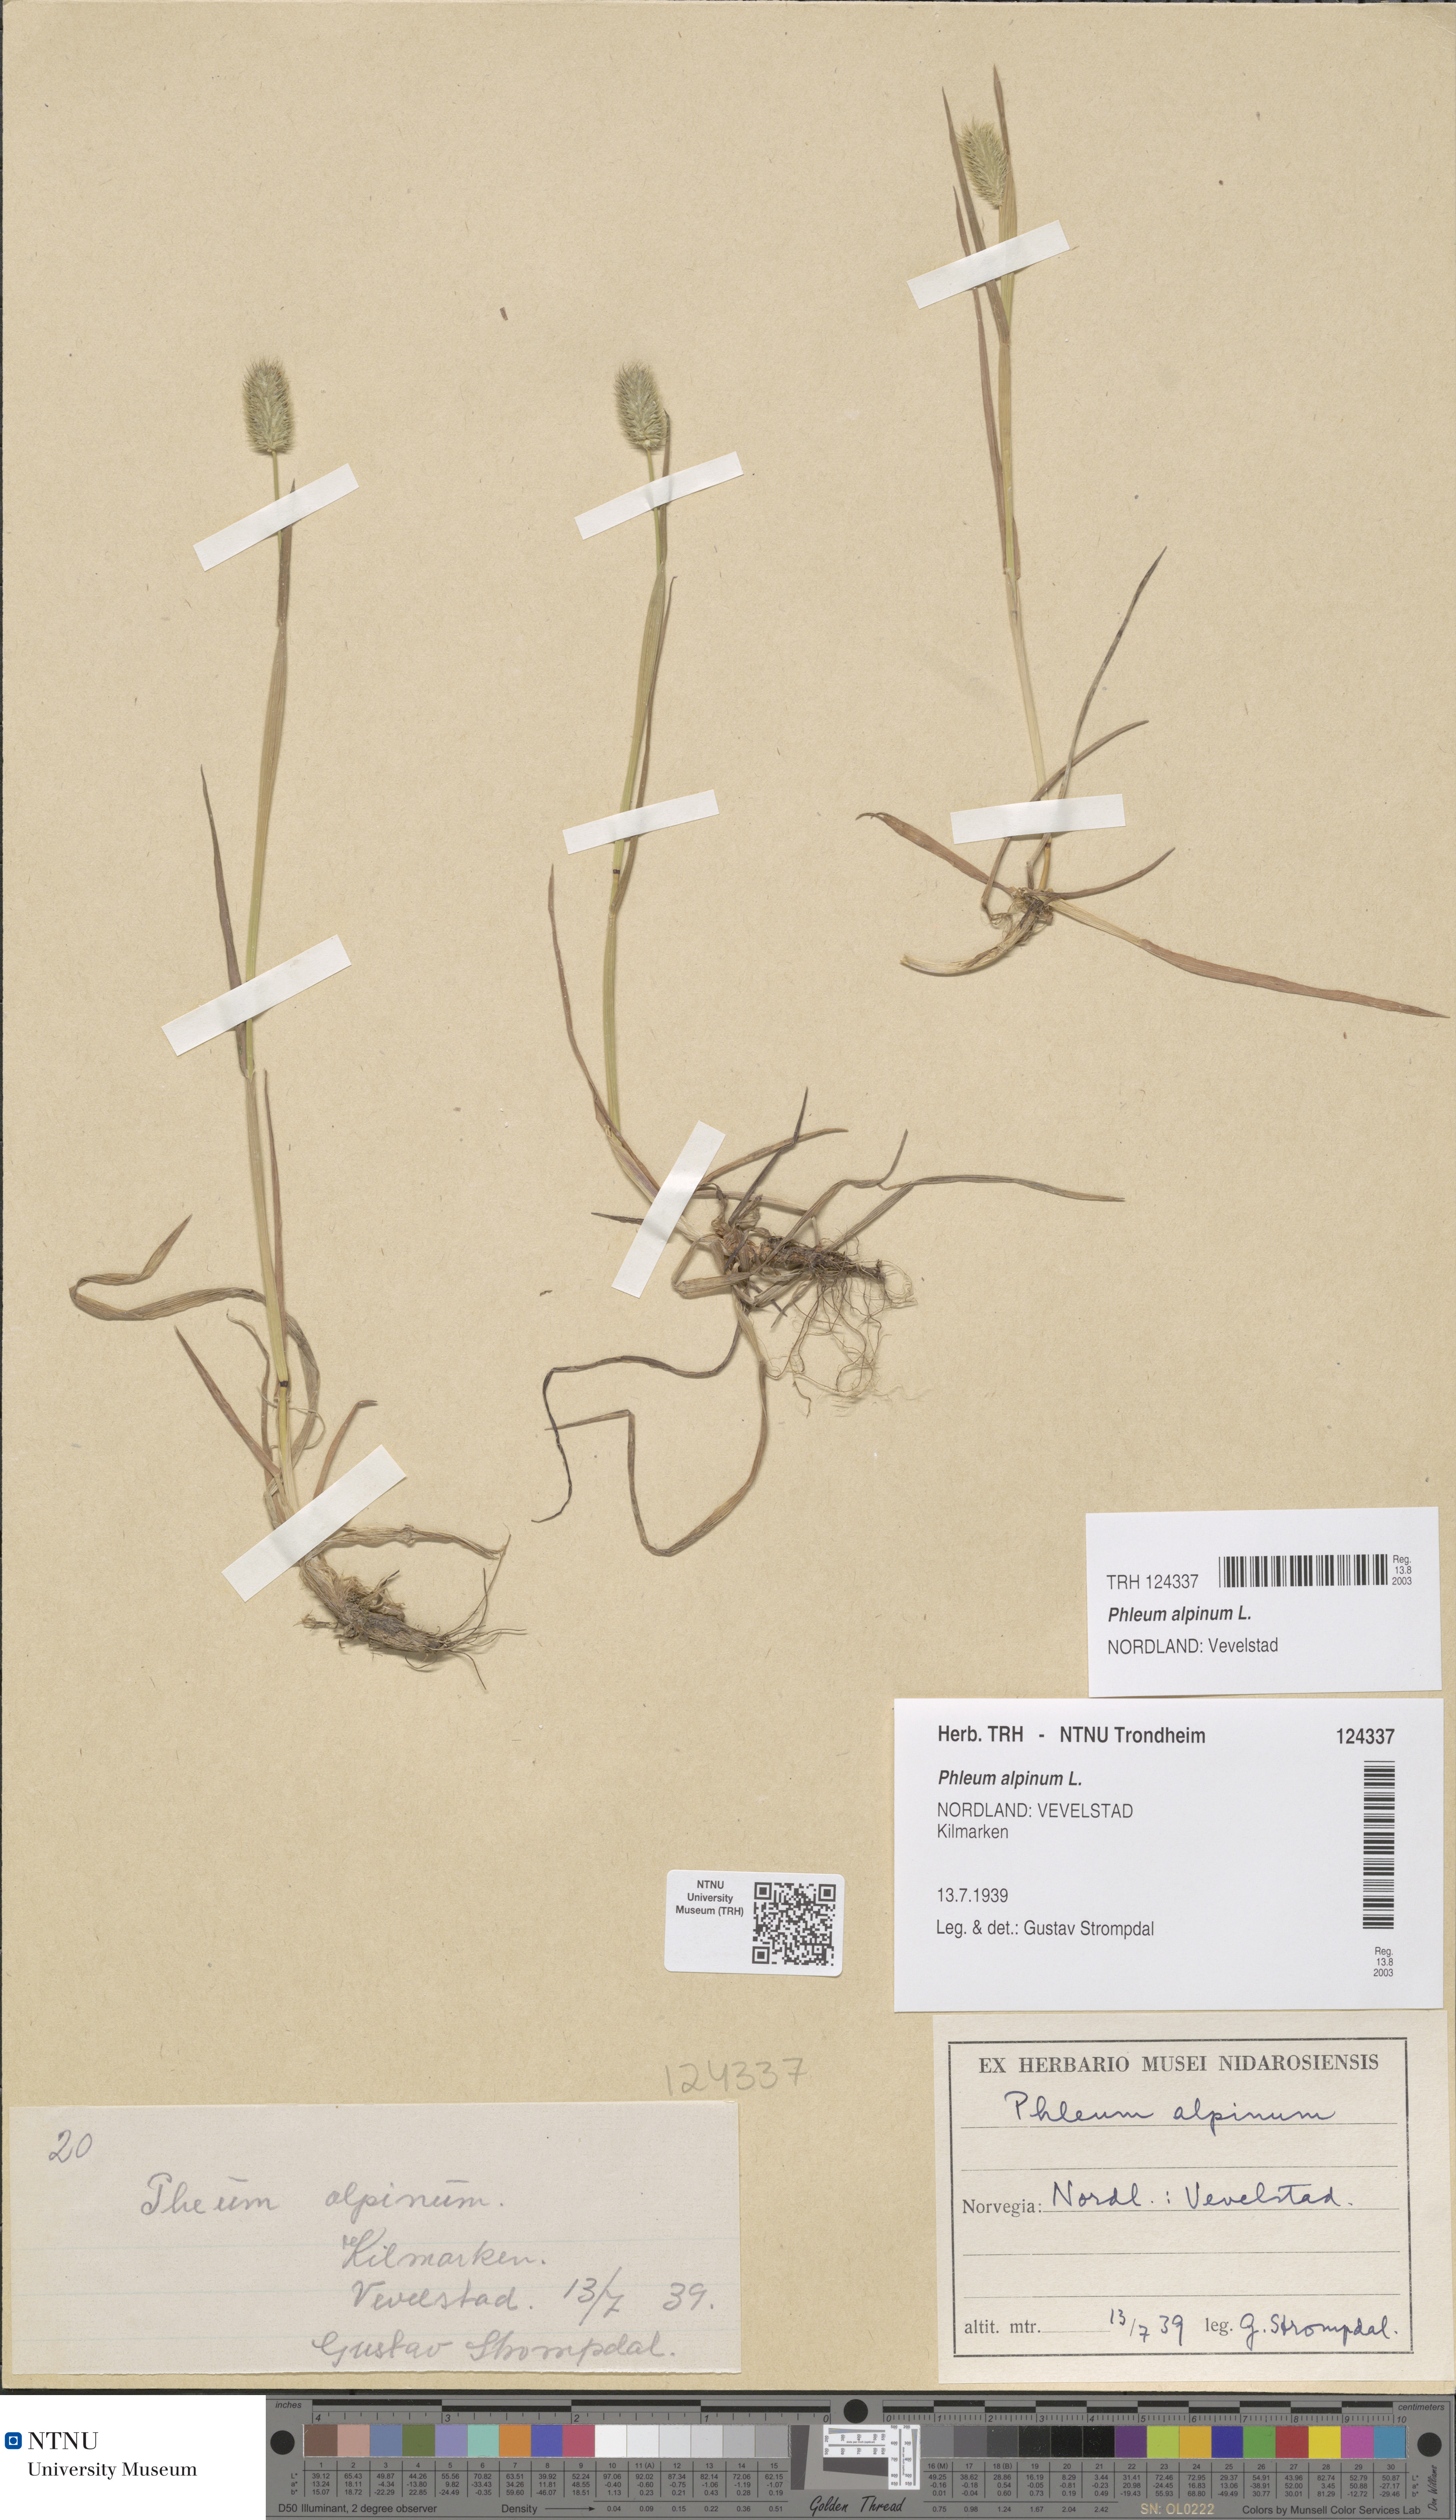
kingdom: Plantae
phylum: Tracheophyta
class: Liliopsida
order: Poales
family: Poaceae
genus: Phleum
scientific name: Phleum alpinum
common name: Alpine cat's-tail
